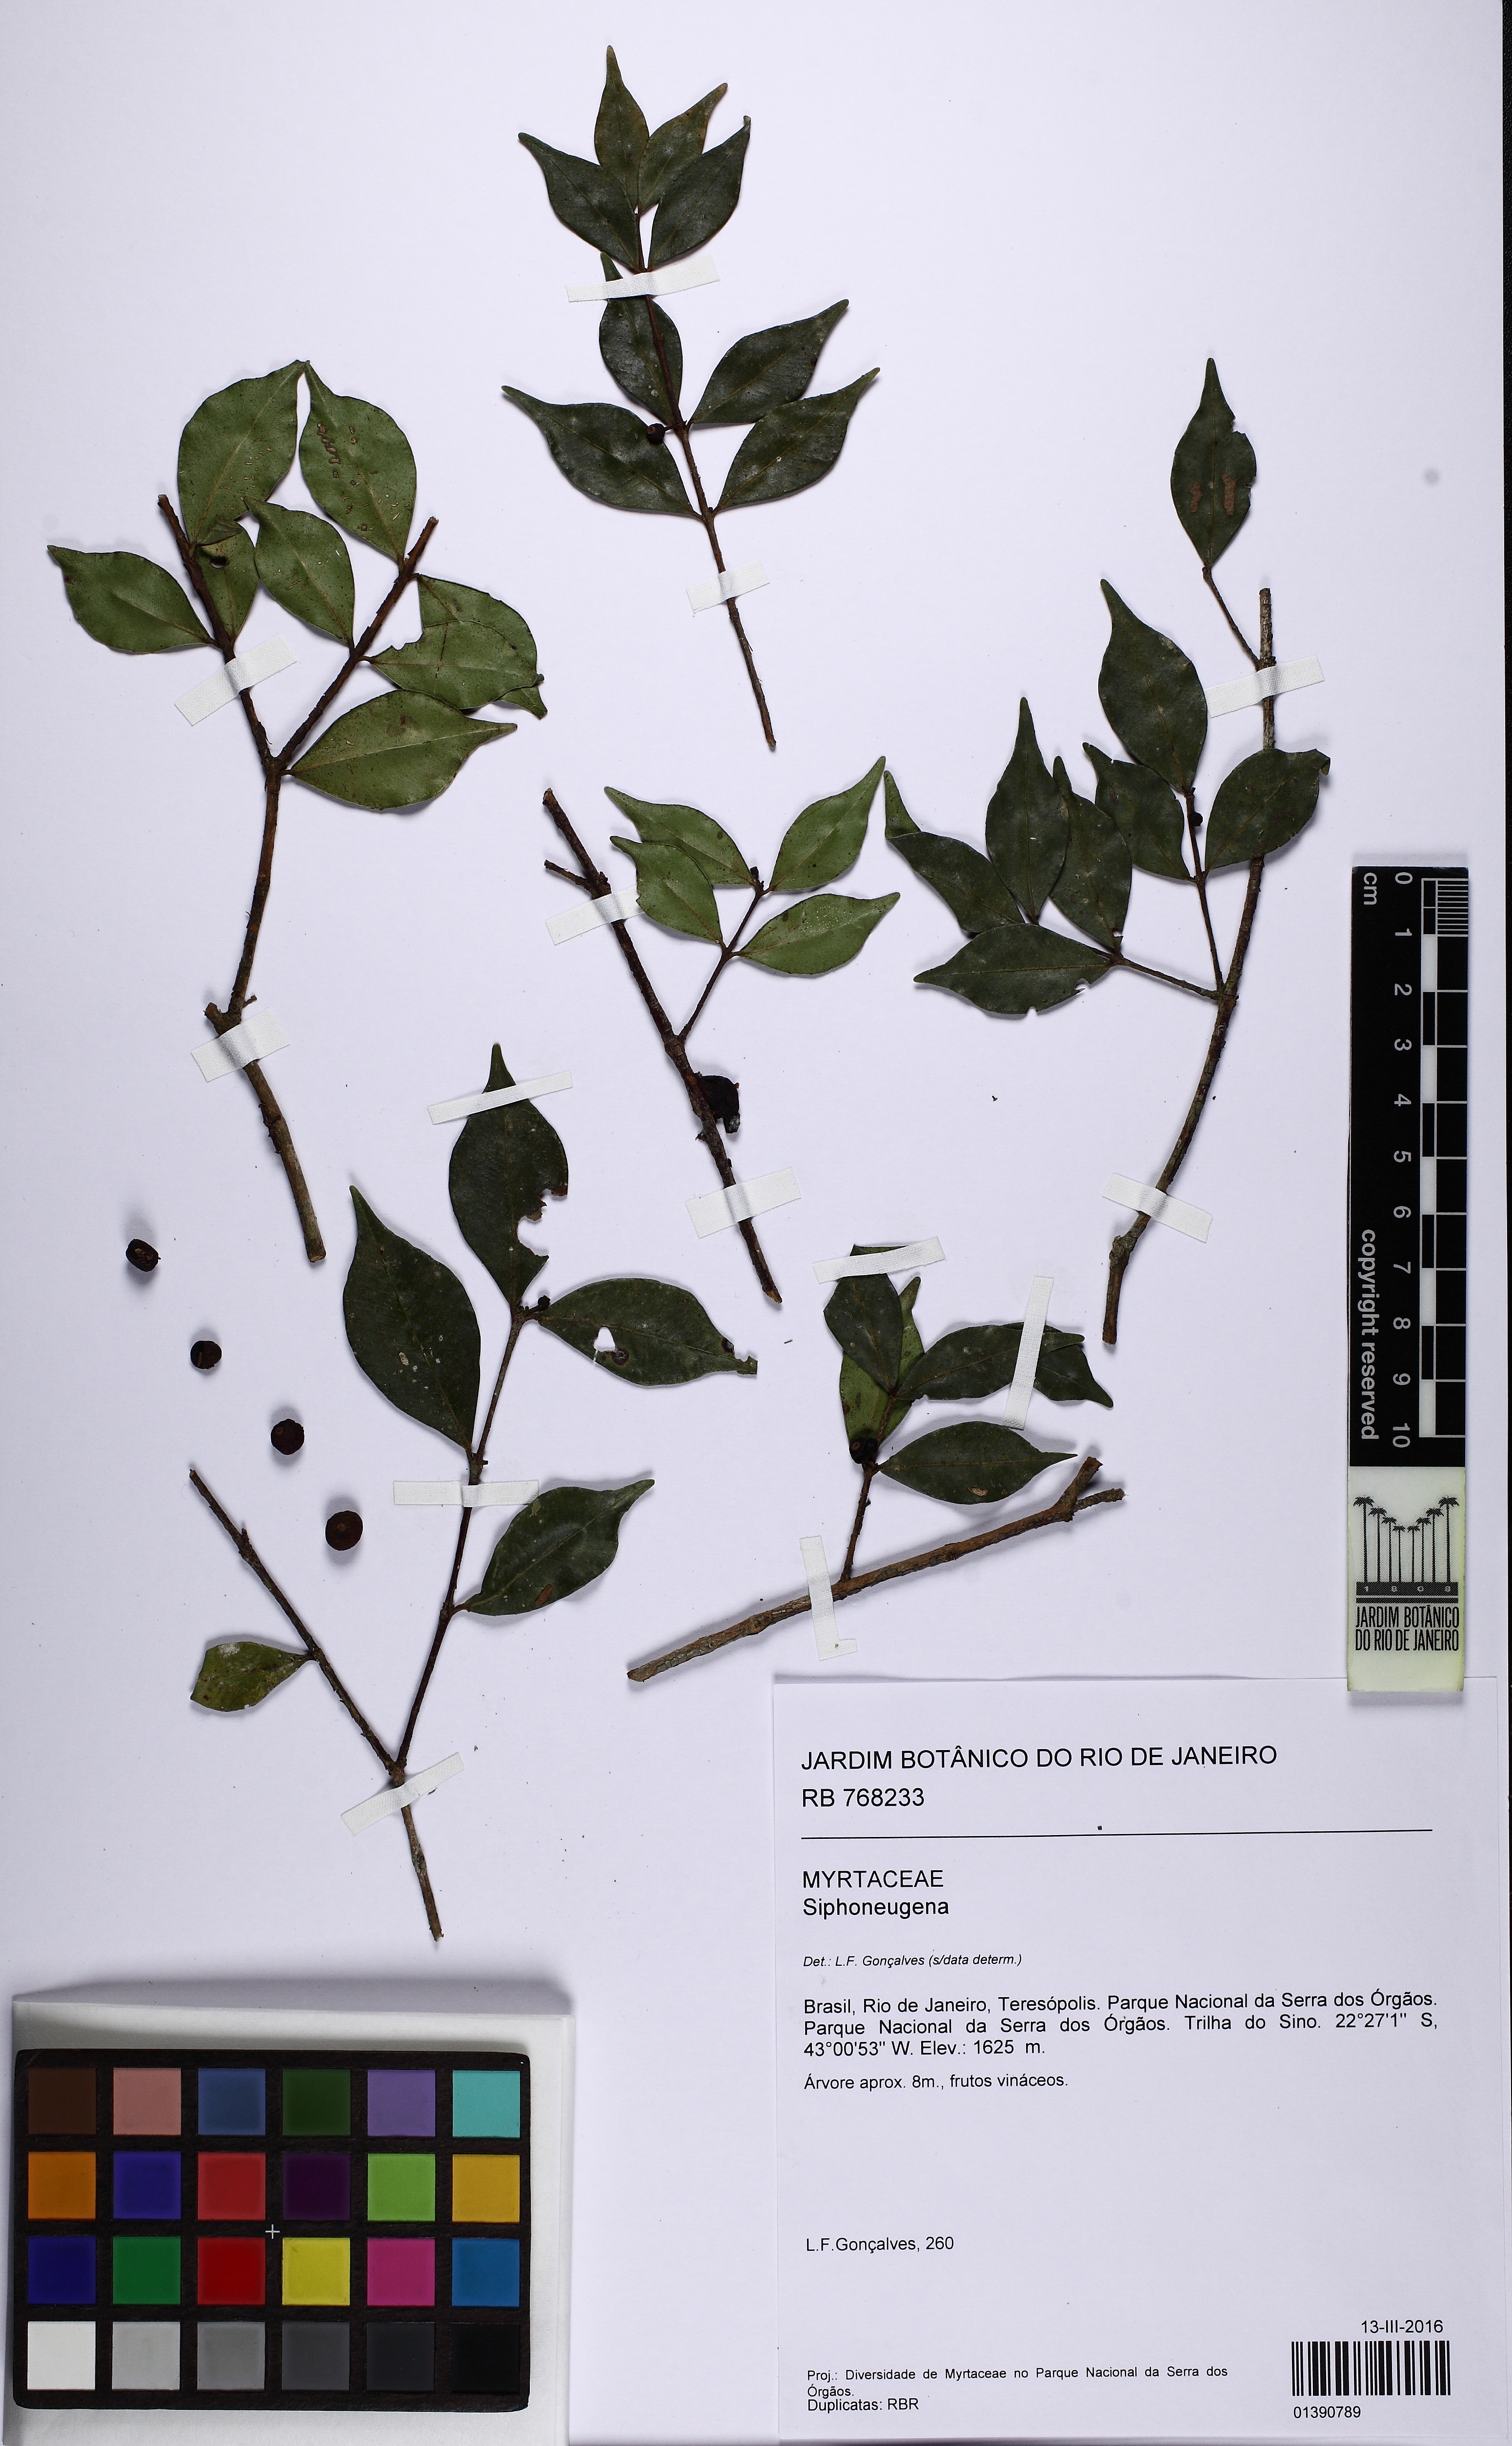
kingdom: Plantae
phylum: Tracheophyta
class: Magnoliopsida
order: Myrtales
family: Myrtaceae
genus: Siphoneugena
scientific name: Siphoneugena
